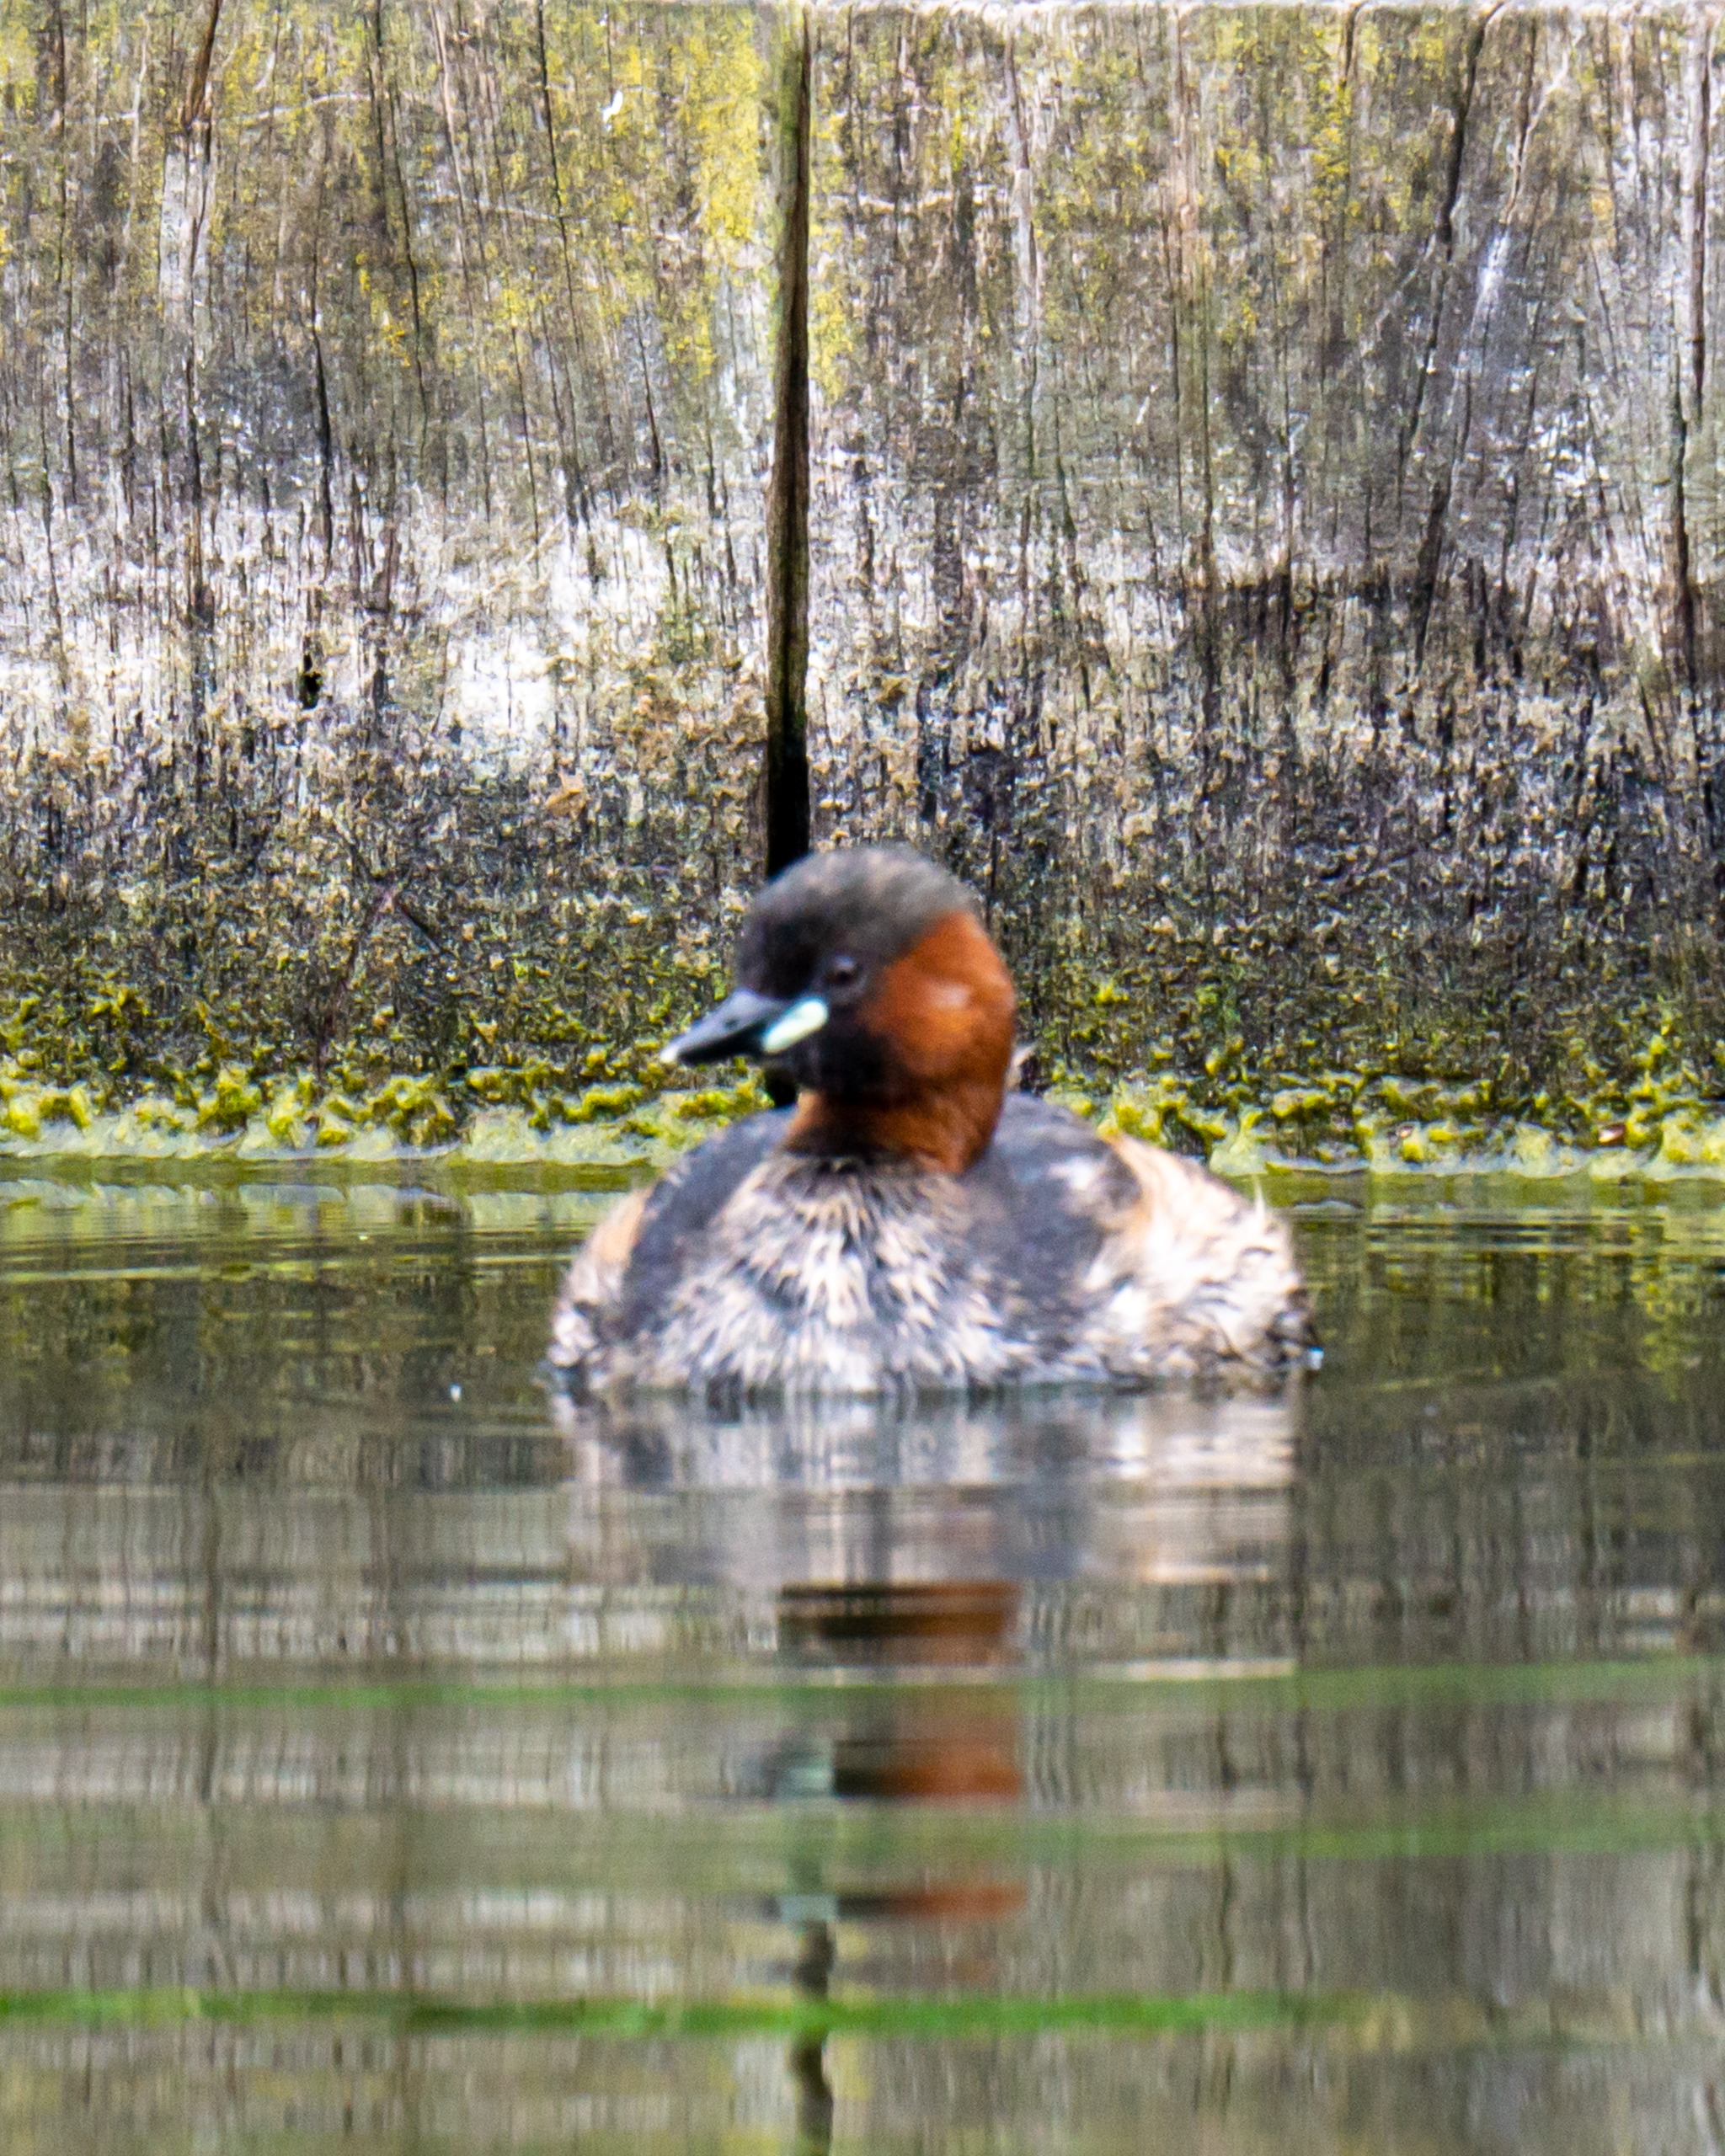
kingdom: Animalia
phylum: Chordata
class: Aves
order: Podicipediformes
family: Podicipedidae
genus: Tachybaptus
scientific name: Tachybaptus ruficollis
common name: Lille lappedykker
